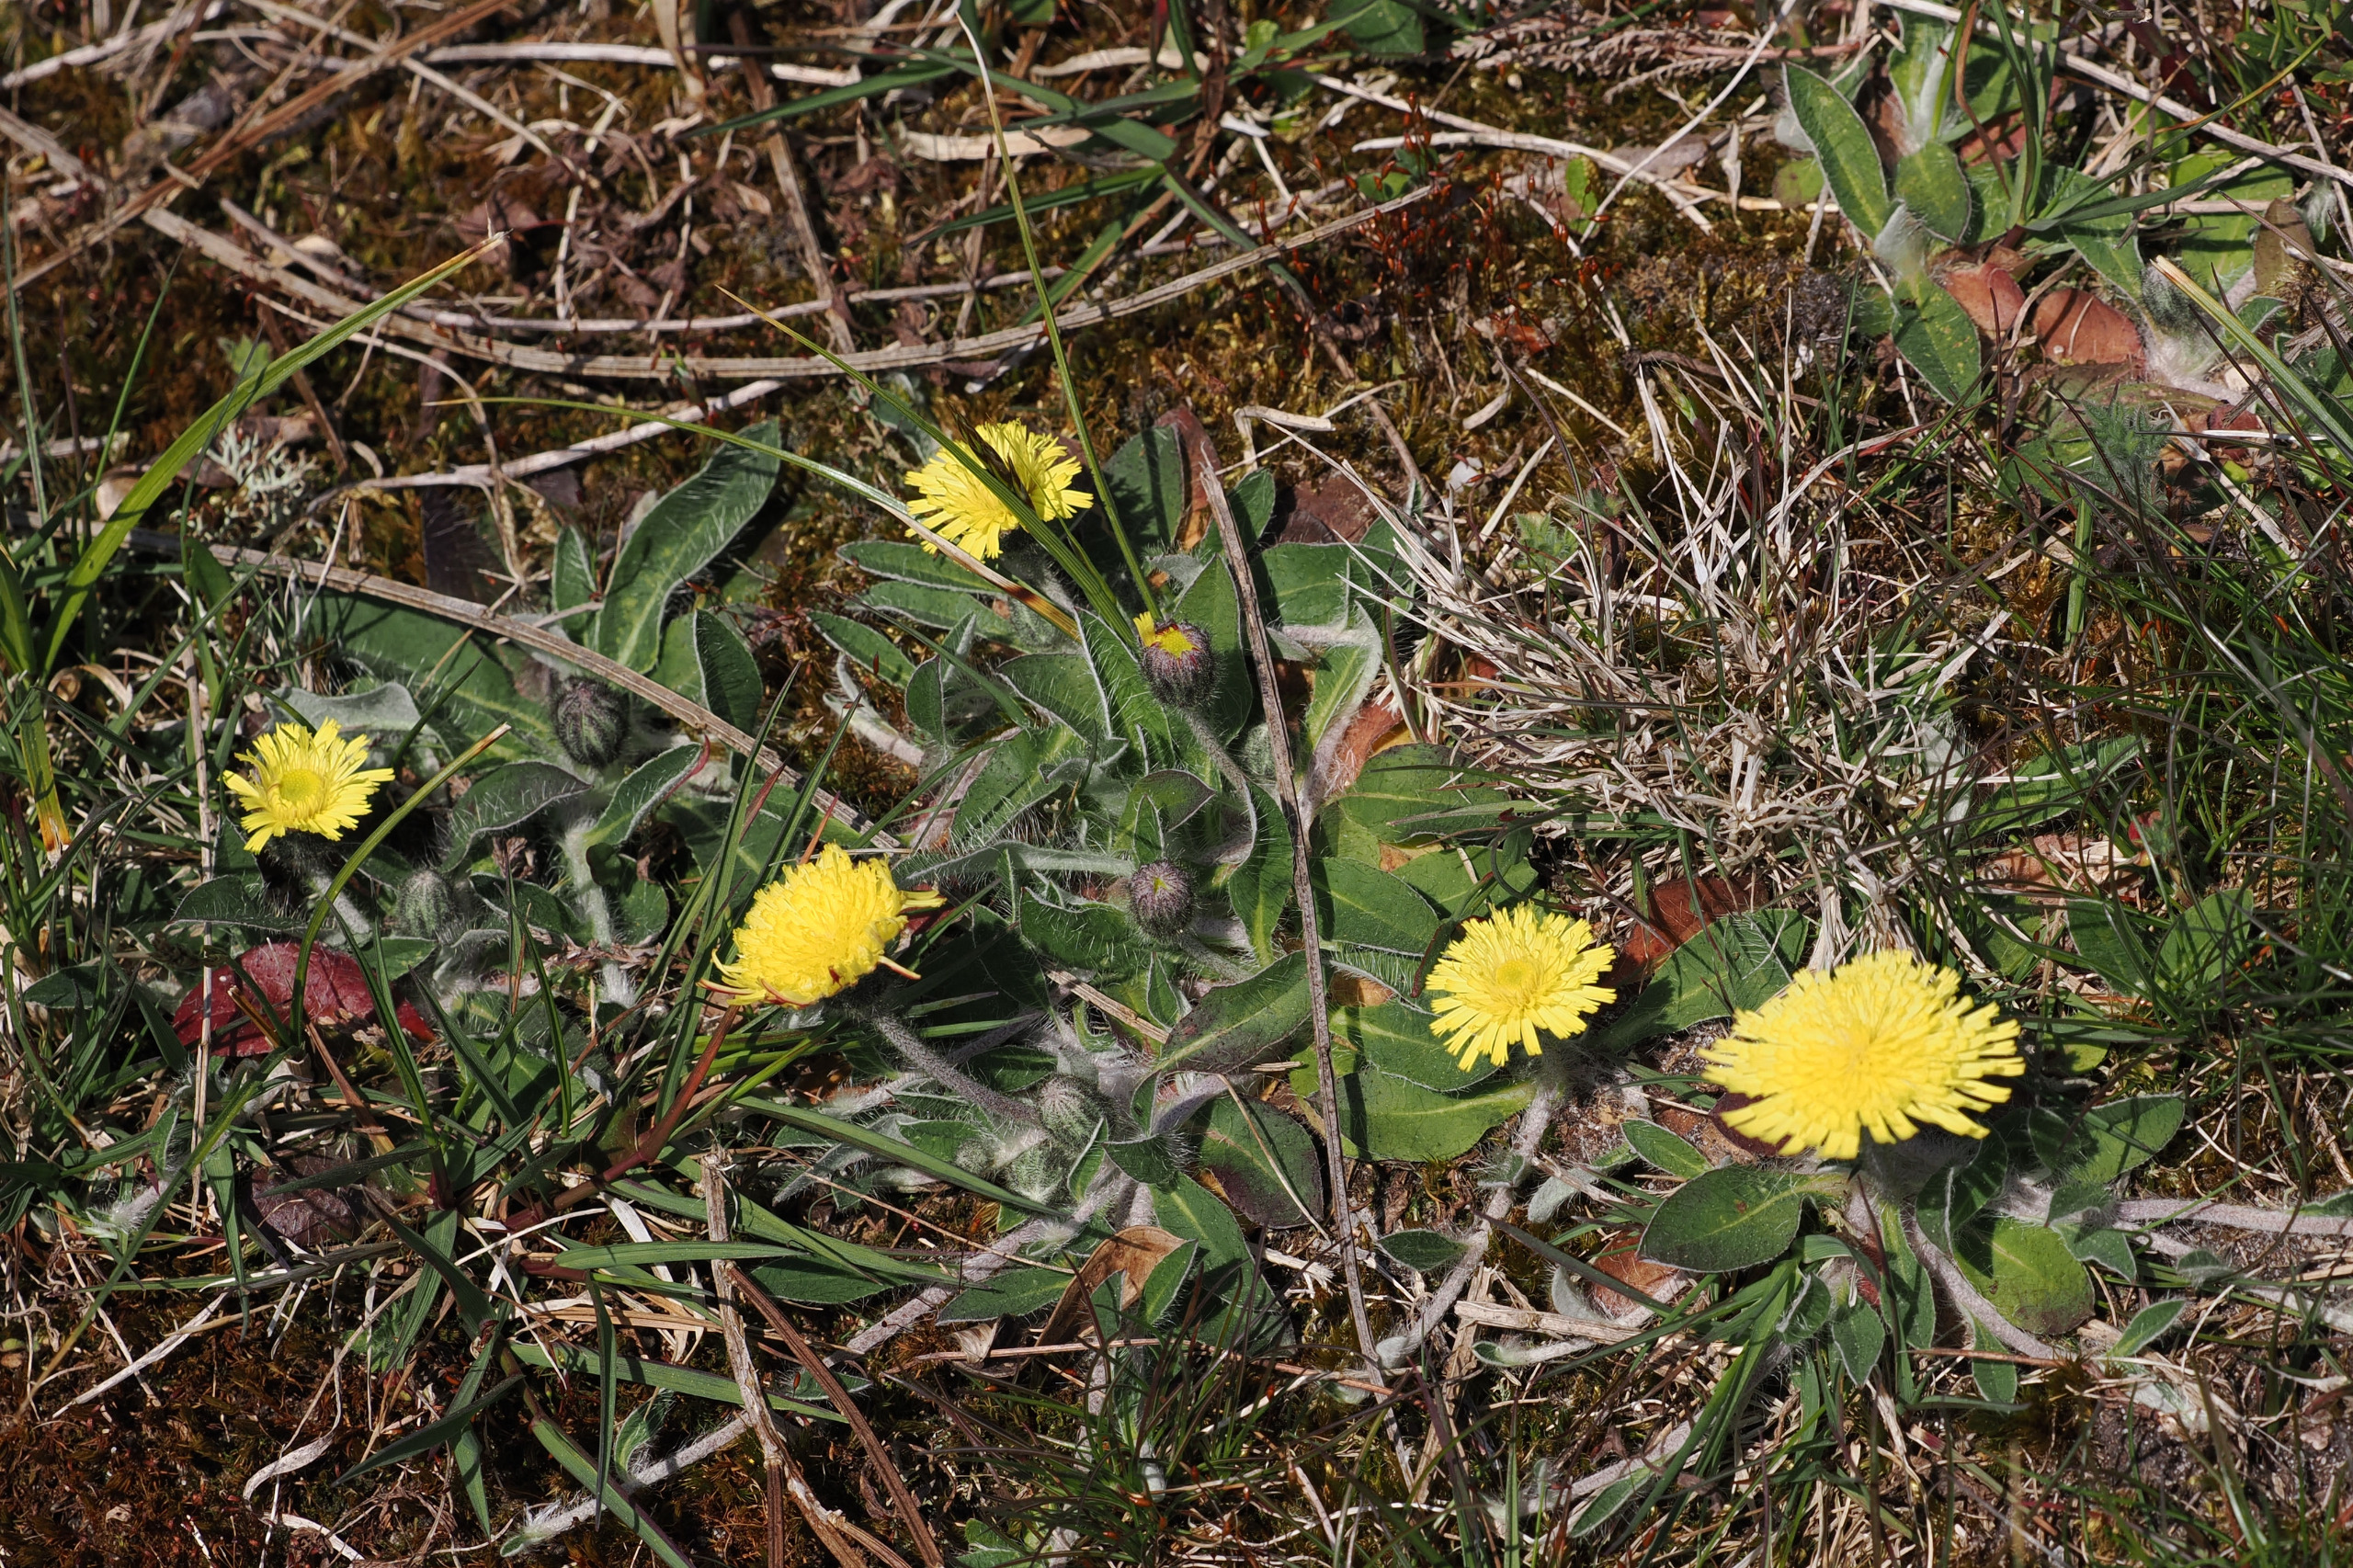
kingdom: Plantae
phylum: Tracheophyta
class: Magnoliopsida
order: Asterales
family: Asteraceae
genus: Pilosella
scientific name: Pilosella officinarum
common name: Håret høgeurt
